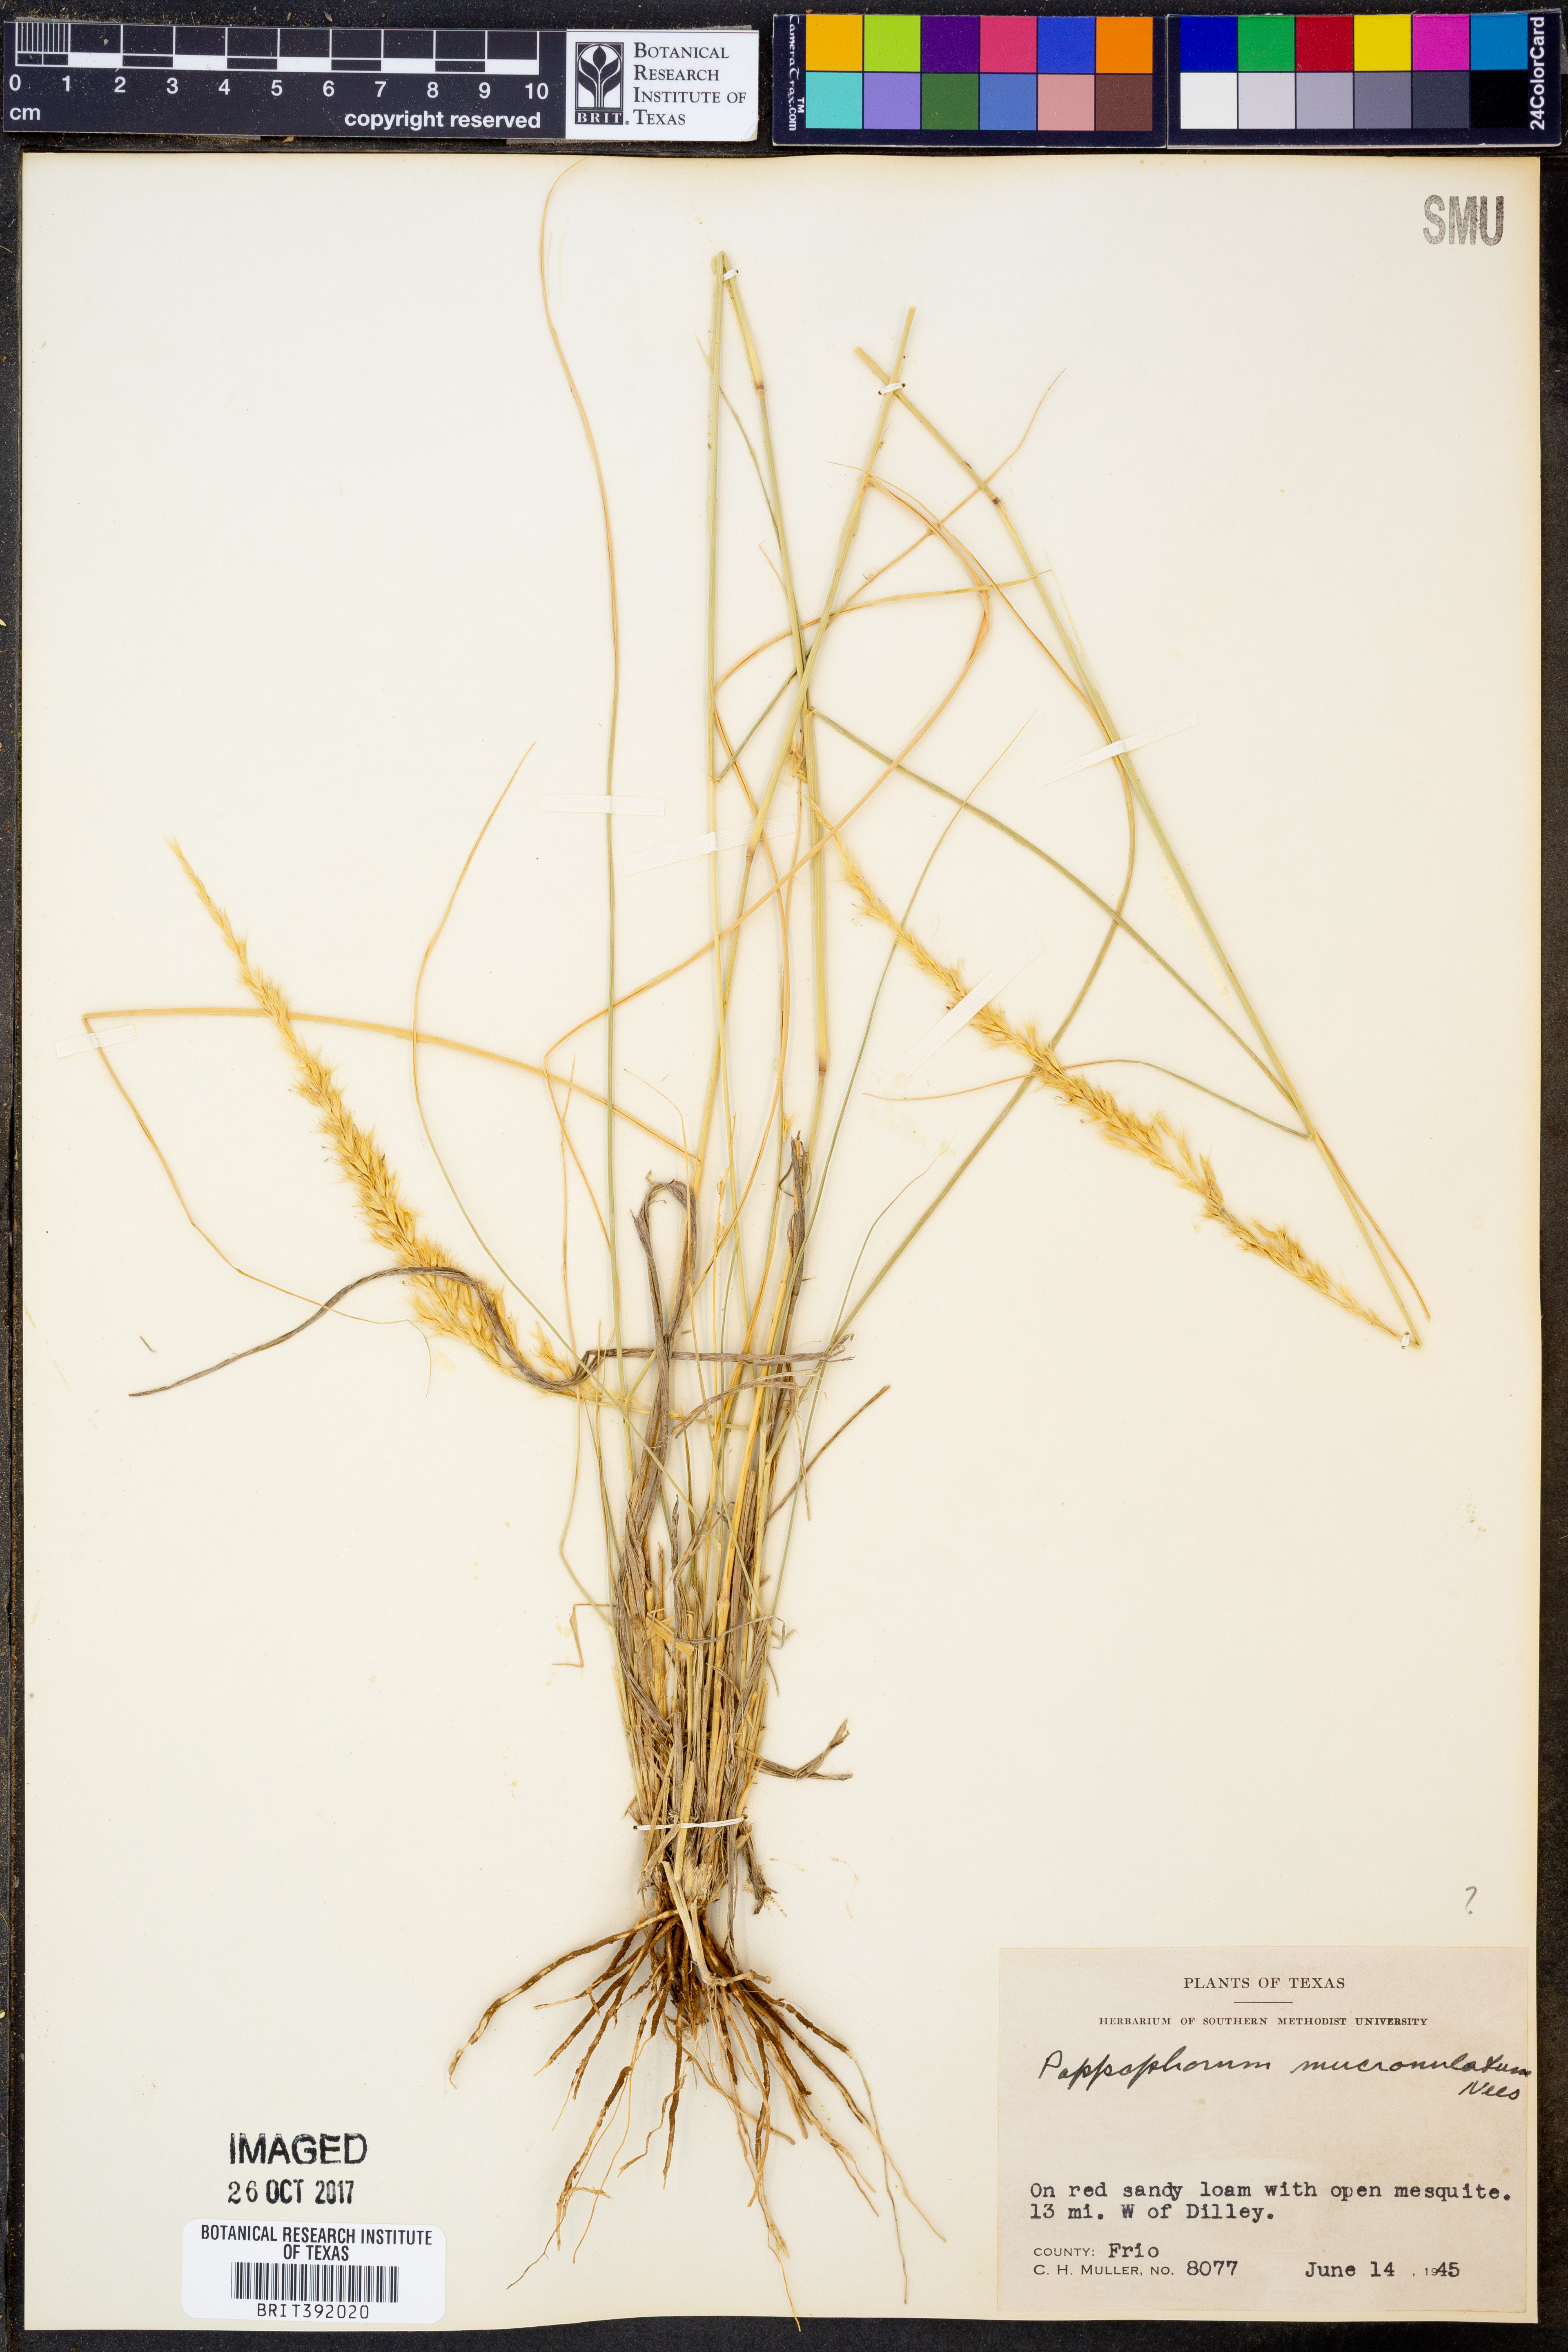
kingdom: Plantae
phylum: Tracheophyta
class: Liliopsida
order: Poales
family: Poaceae
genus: Pappophorum
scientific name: Pappophorum mucronulatum
